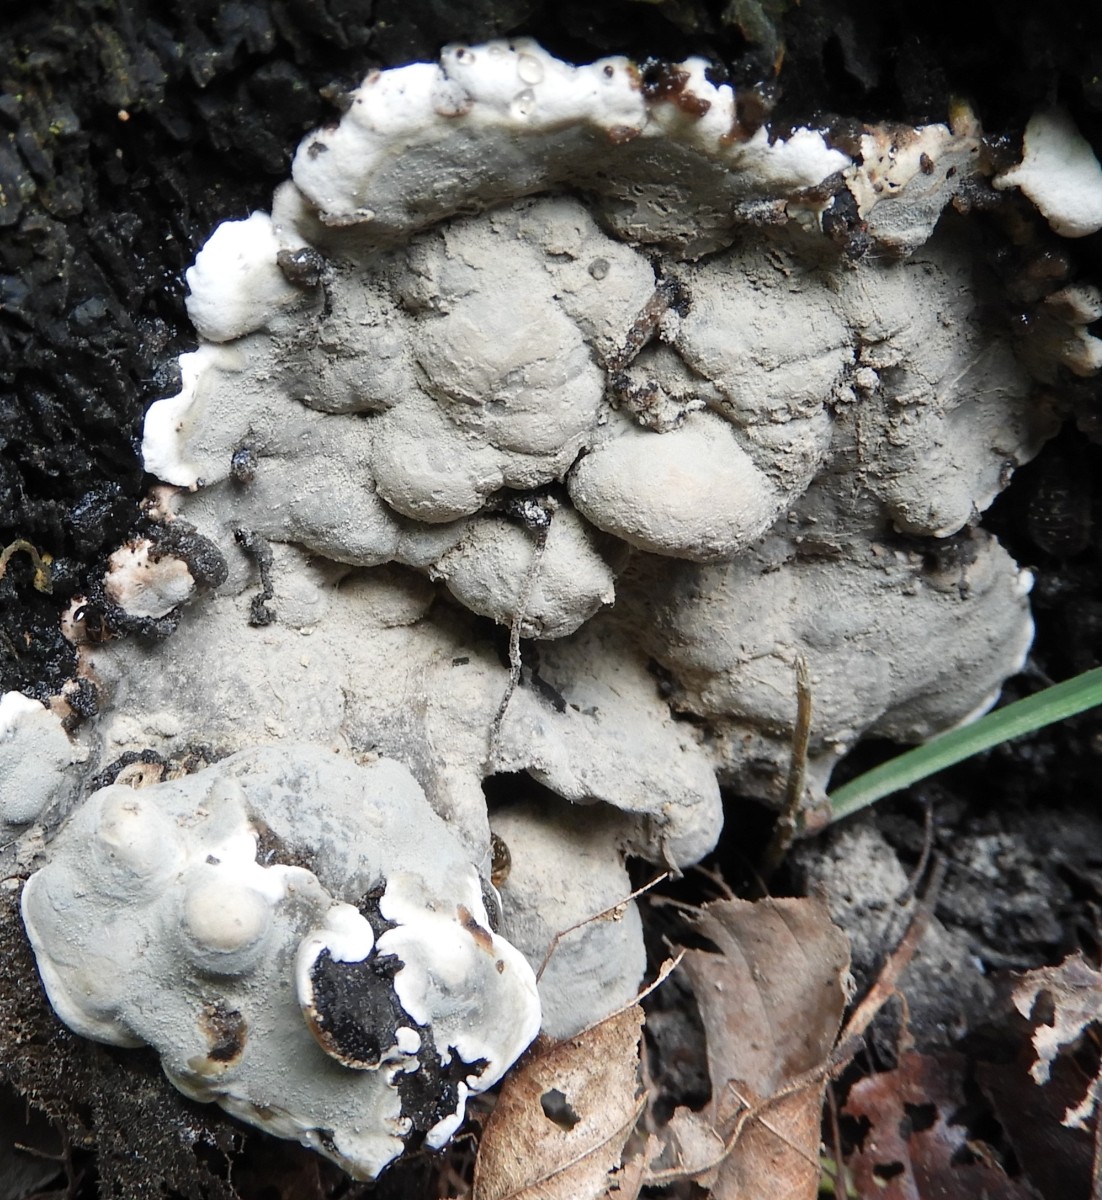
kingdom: Fungi
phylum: Ascomycota
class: Sordariomycetes
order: Xylariales
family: Xylariaceae
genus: Kretzschmaria
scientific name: Kretzschmaria deusta
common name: stor kulsvamp
